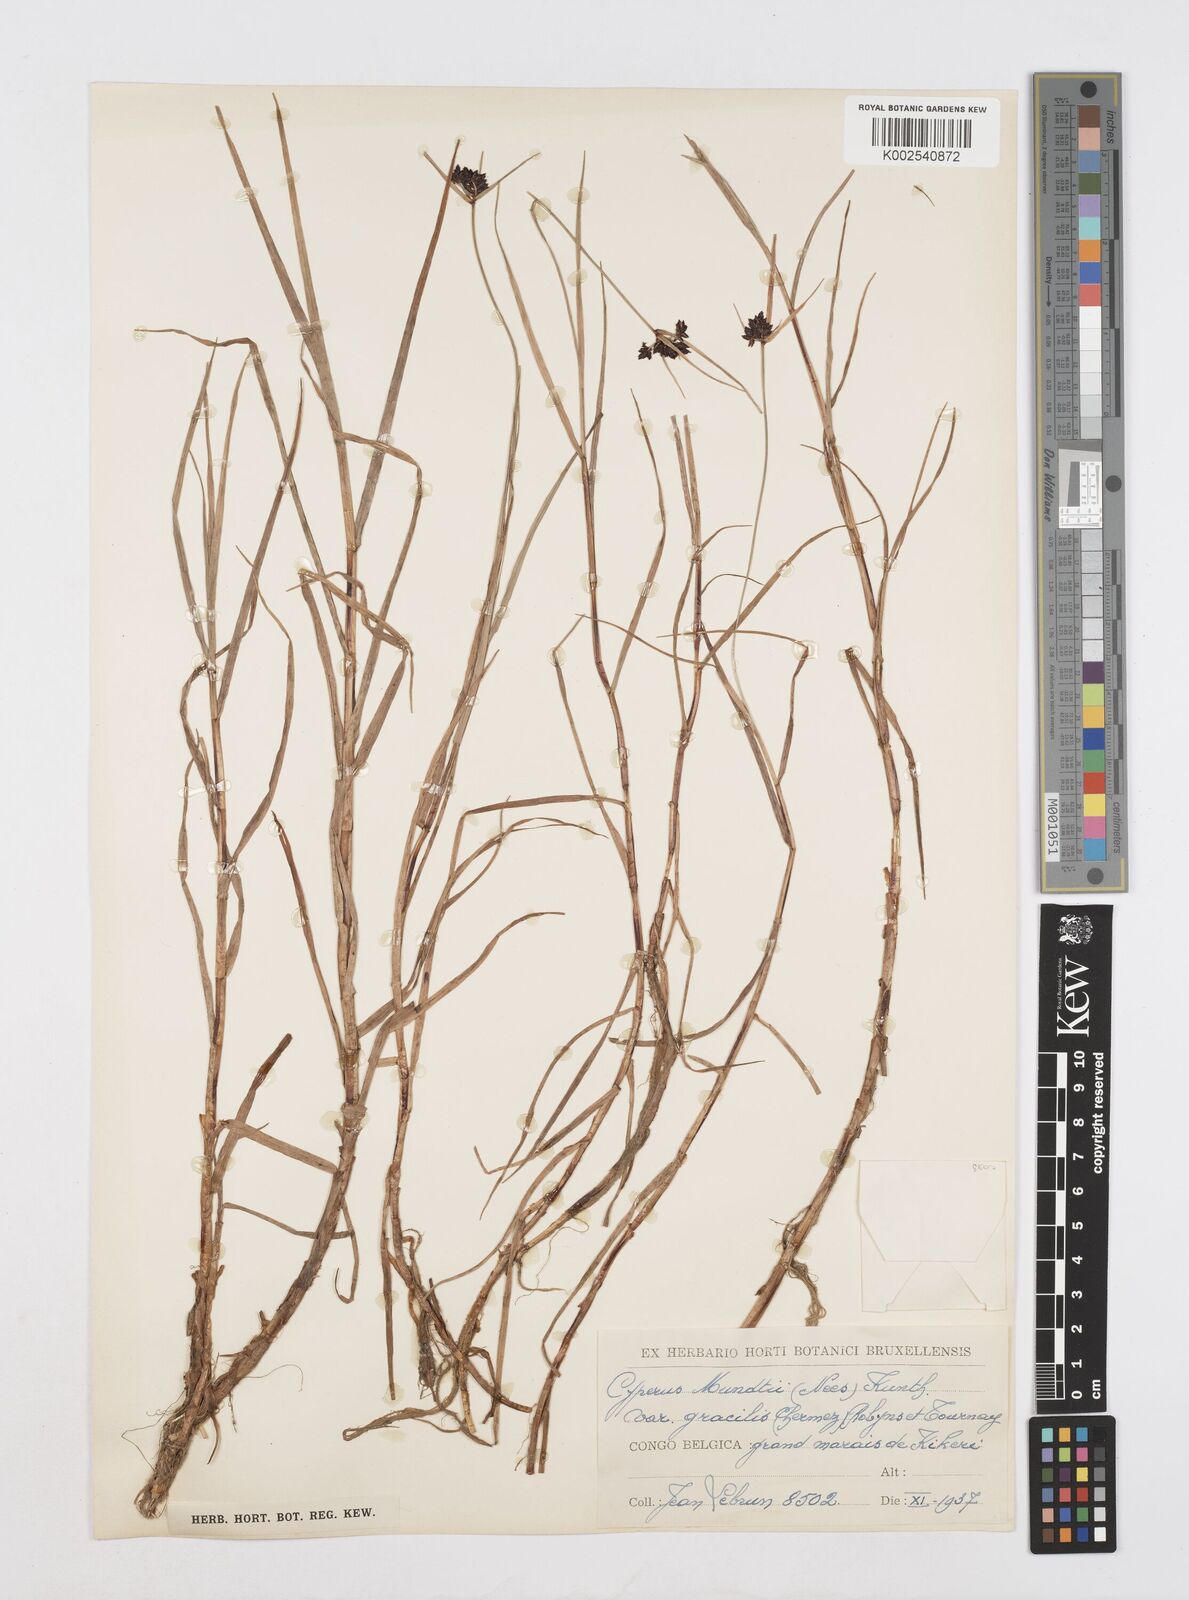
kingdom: Plantae
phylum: Tracheophyta
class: Liliopsida
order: Poales
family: Cyperaceae
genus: Cyperus
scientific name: Cyperus mundii
